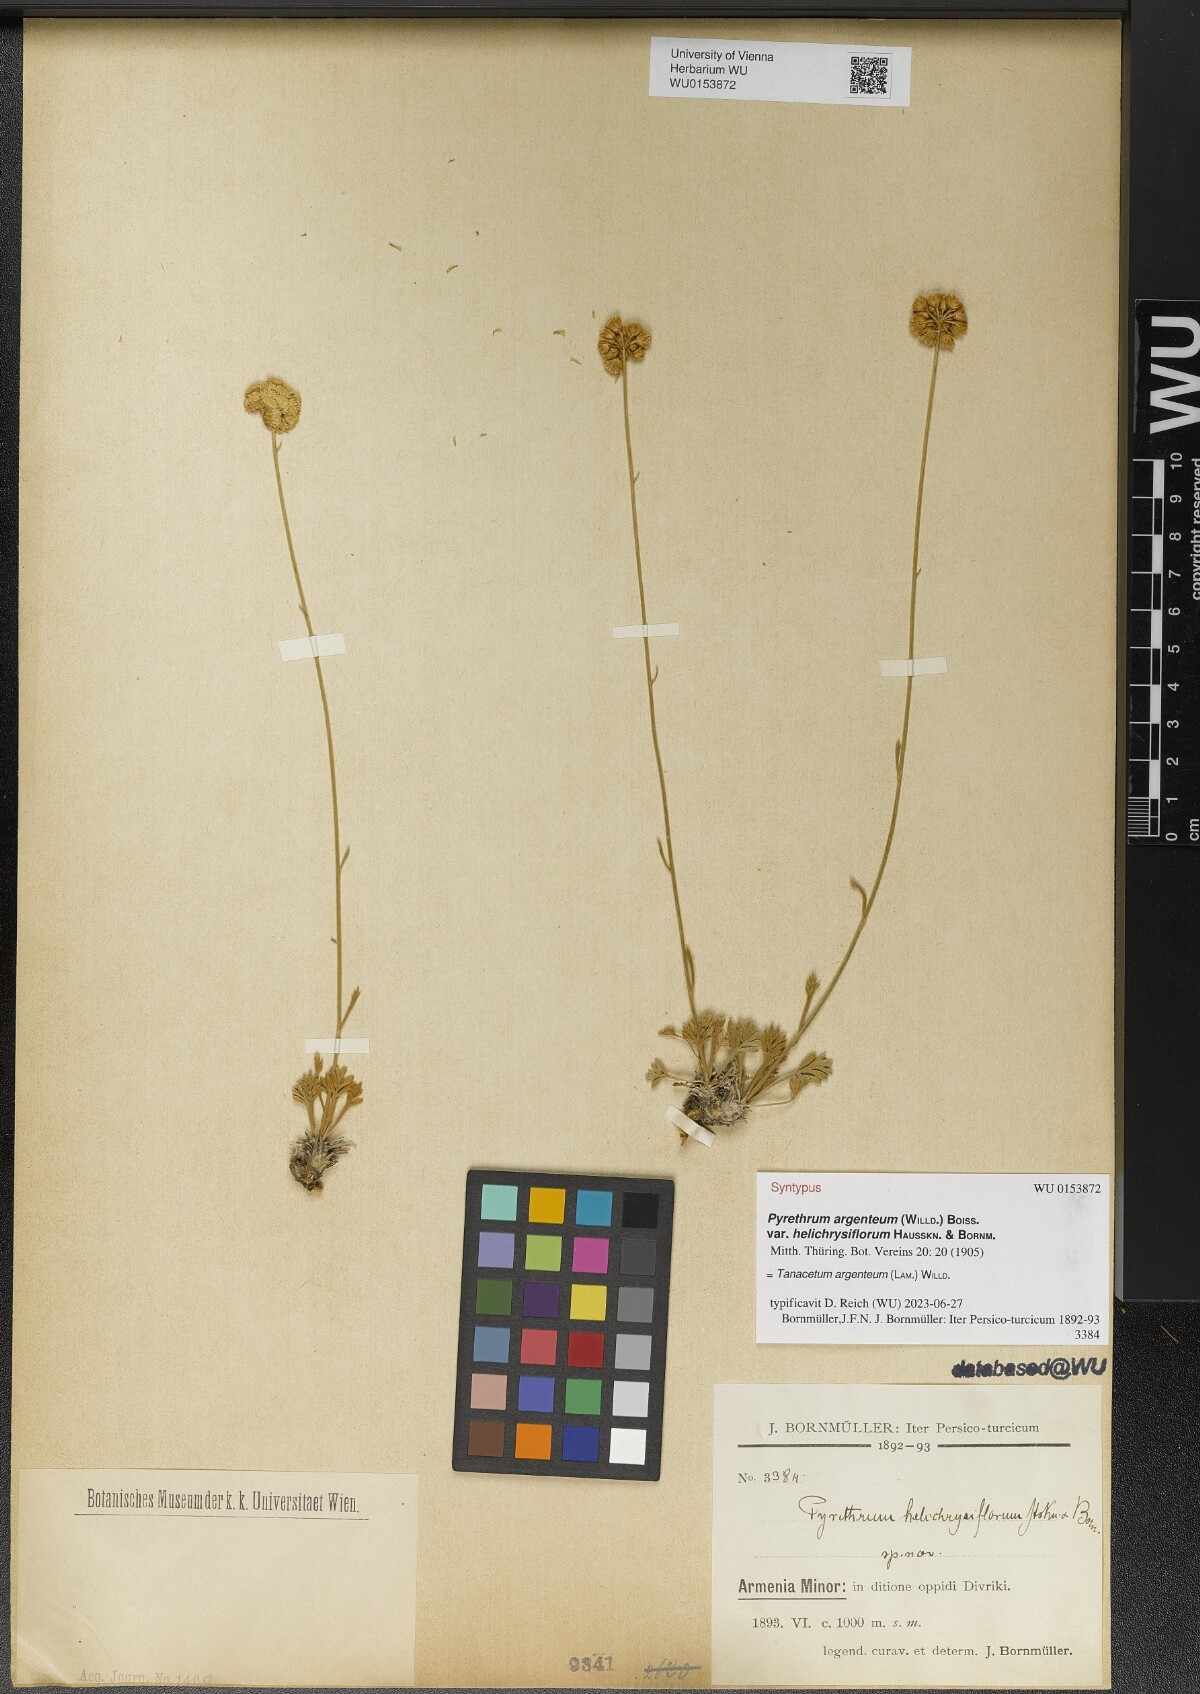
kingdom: Plantae
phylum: Tracheophyta
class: Magnoliopsida
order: Asterales
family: Asteraceae
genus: Tanacetum
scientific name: Tanacetum argenteum
